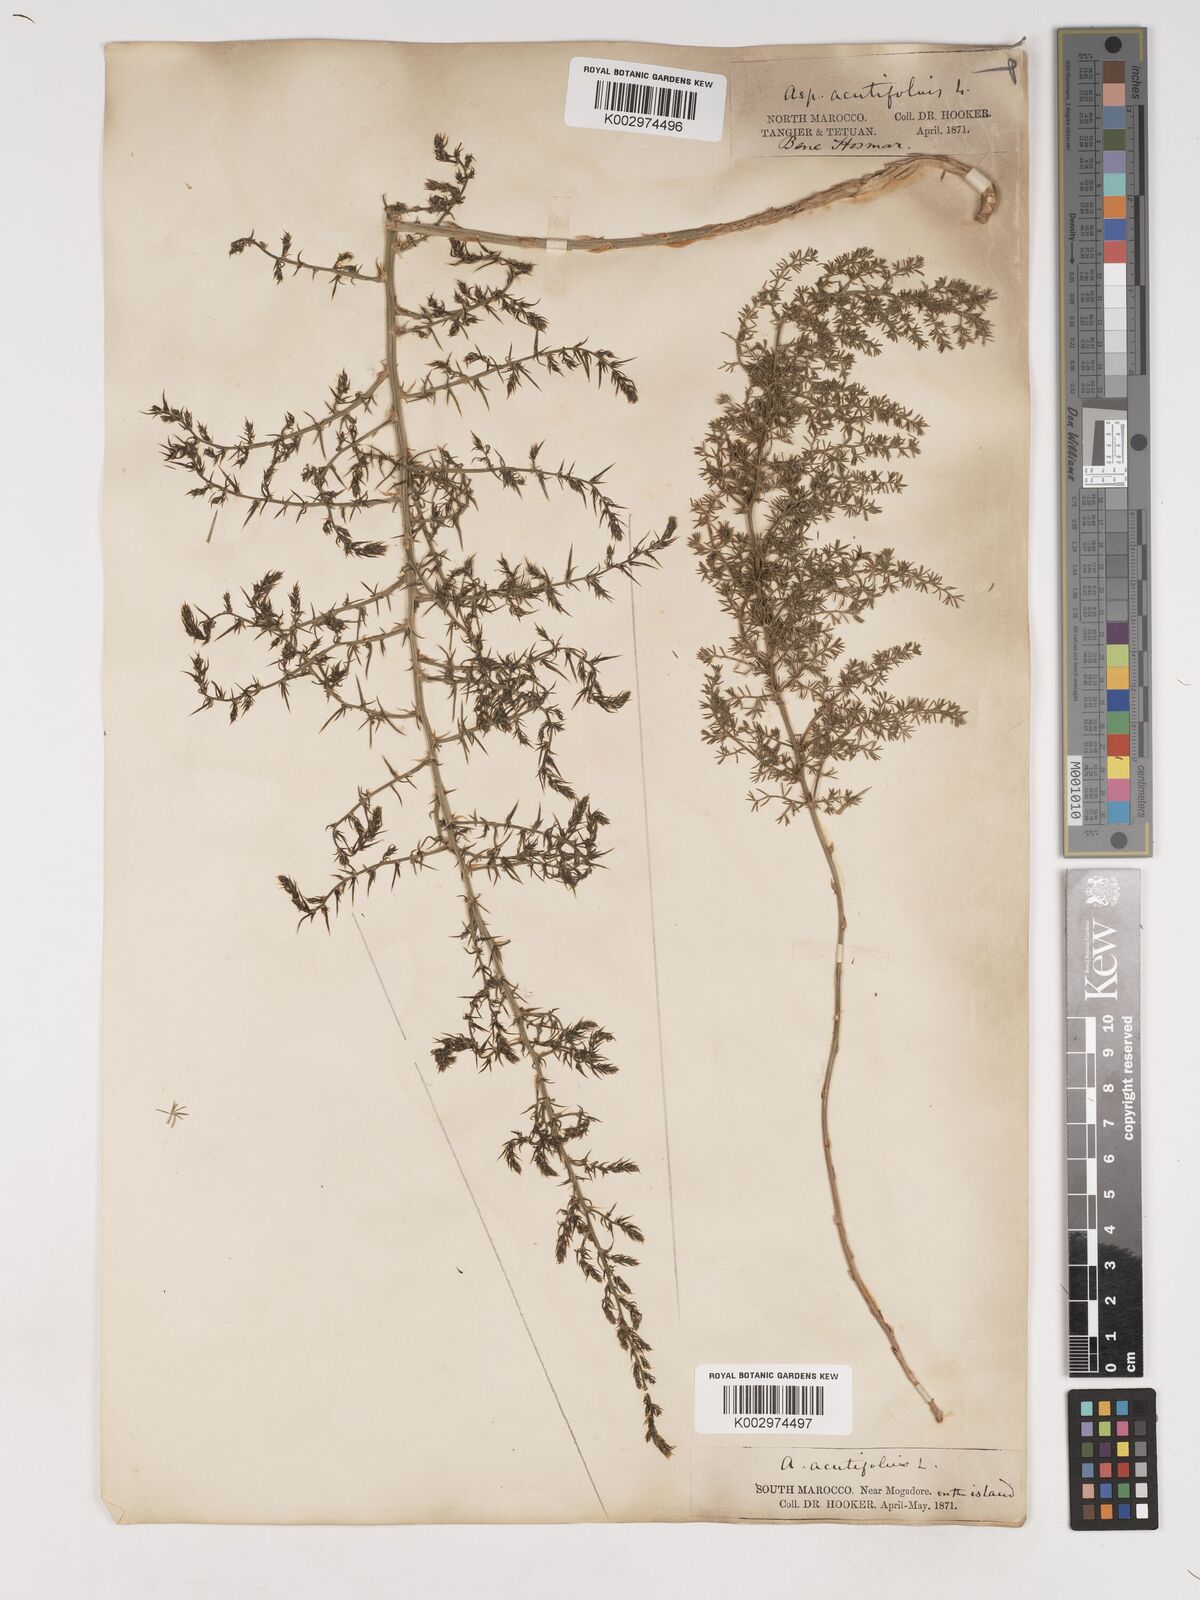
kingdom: Plantae
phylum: Tracheophyta
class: Liliopsida
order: Asparagales
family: Asparagaceae
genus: Asparagus
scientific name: Asparagus acutifolius
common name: Wild asparagus
